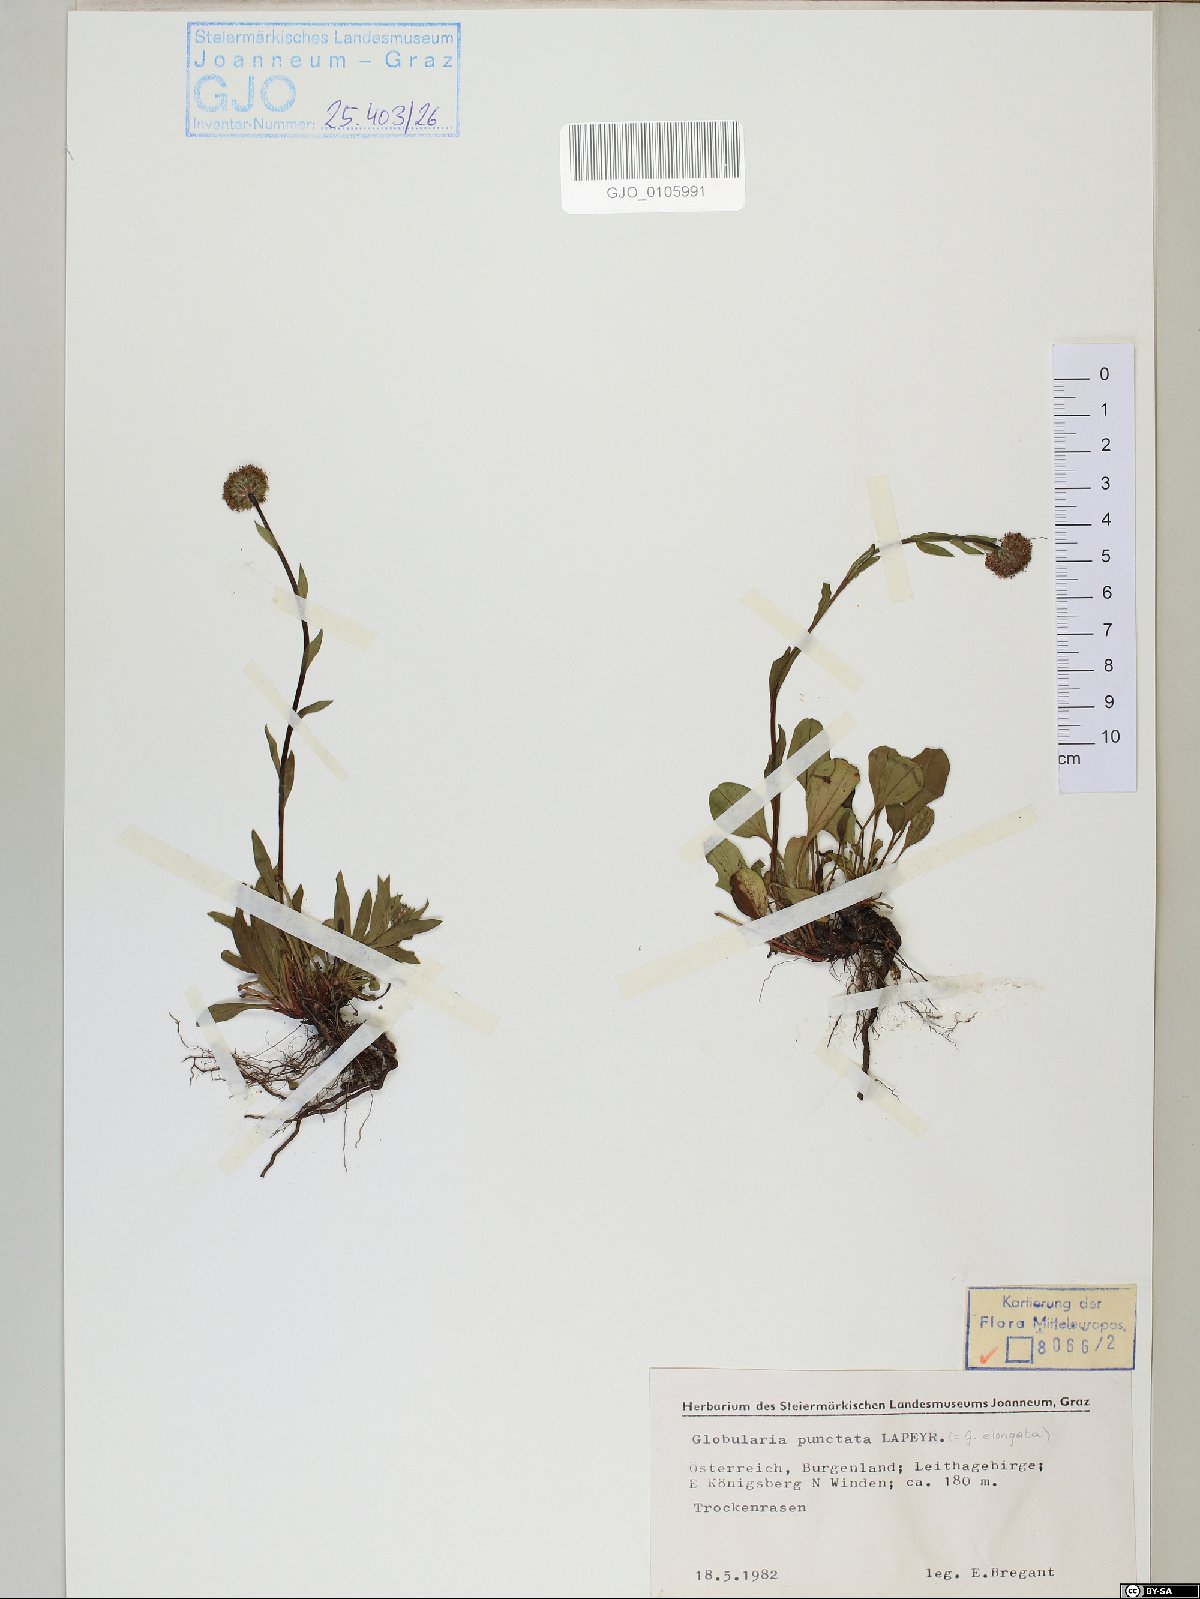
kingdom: Plantae
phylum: Tracheophyta
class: Magnoliopsida
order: Lamiales
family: Plantaginaceae
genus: Globularia
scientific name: Globularia bisnagarica
